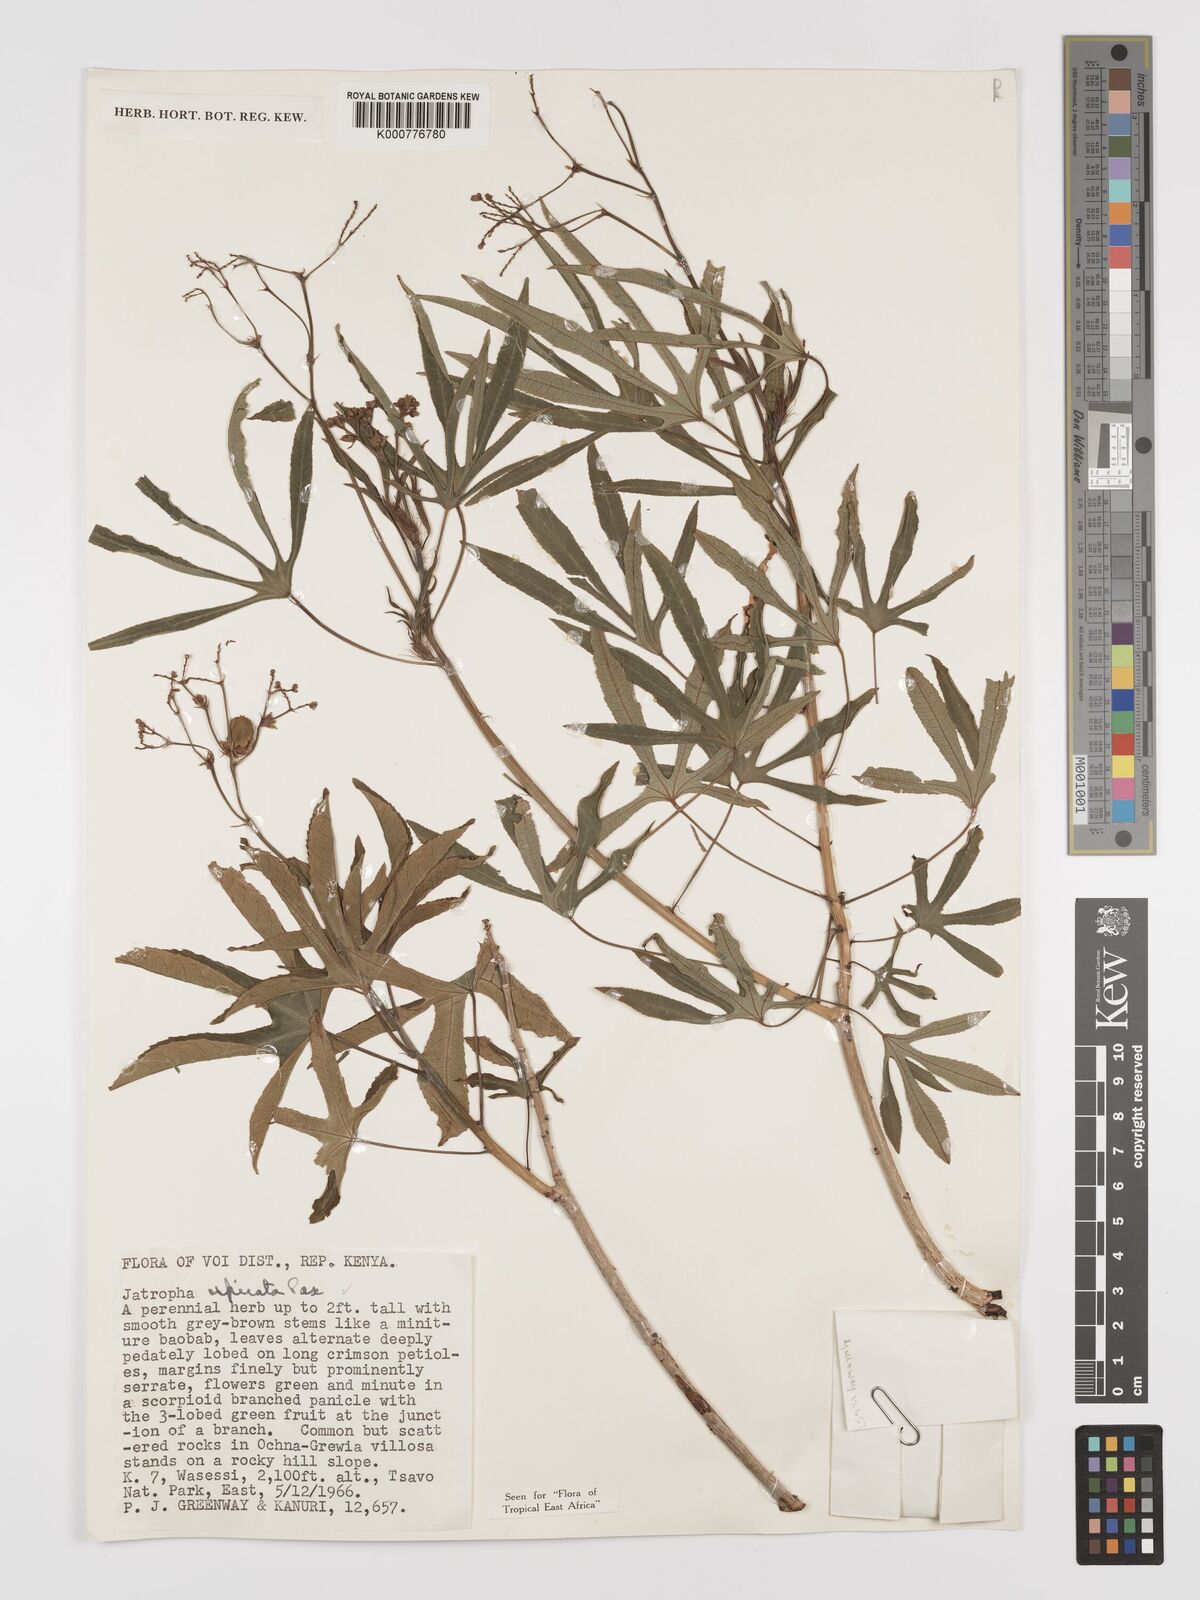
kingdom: Plantae
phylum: Tracheophyta
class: Magnoliopsida
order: Malpighiales
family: Euphorbiaceae
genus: Jatropha
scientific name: Jatropha spicata
